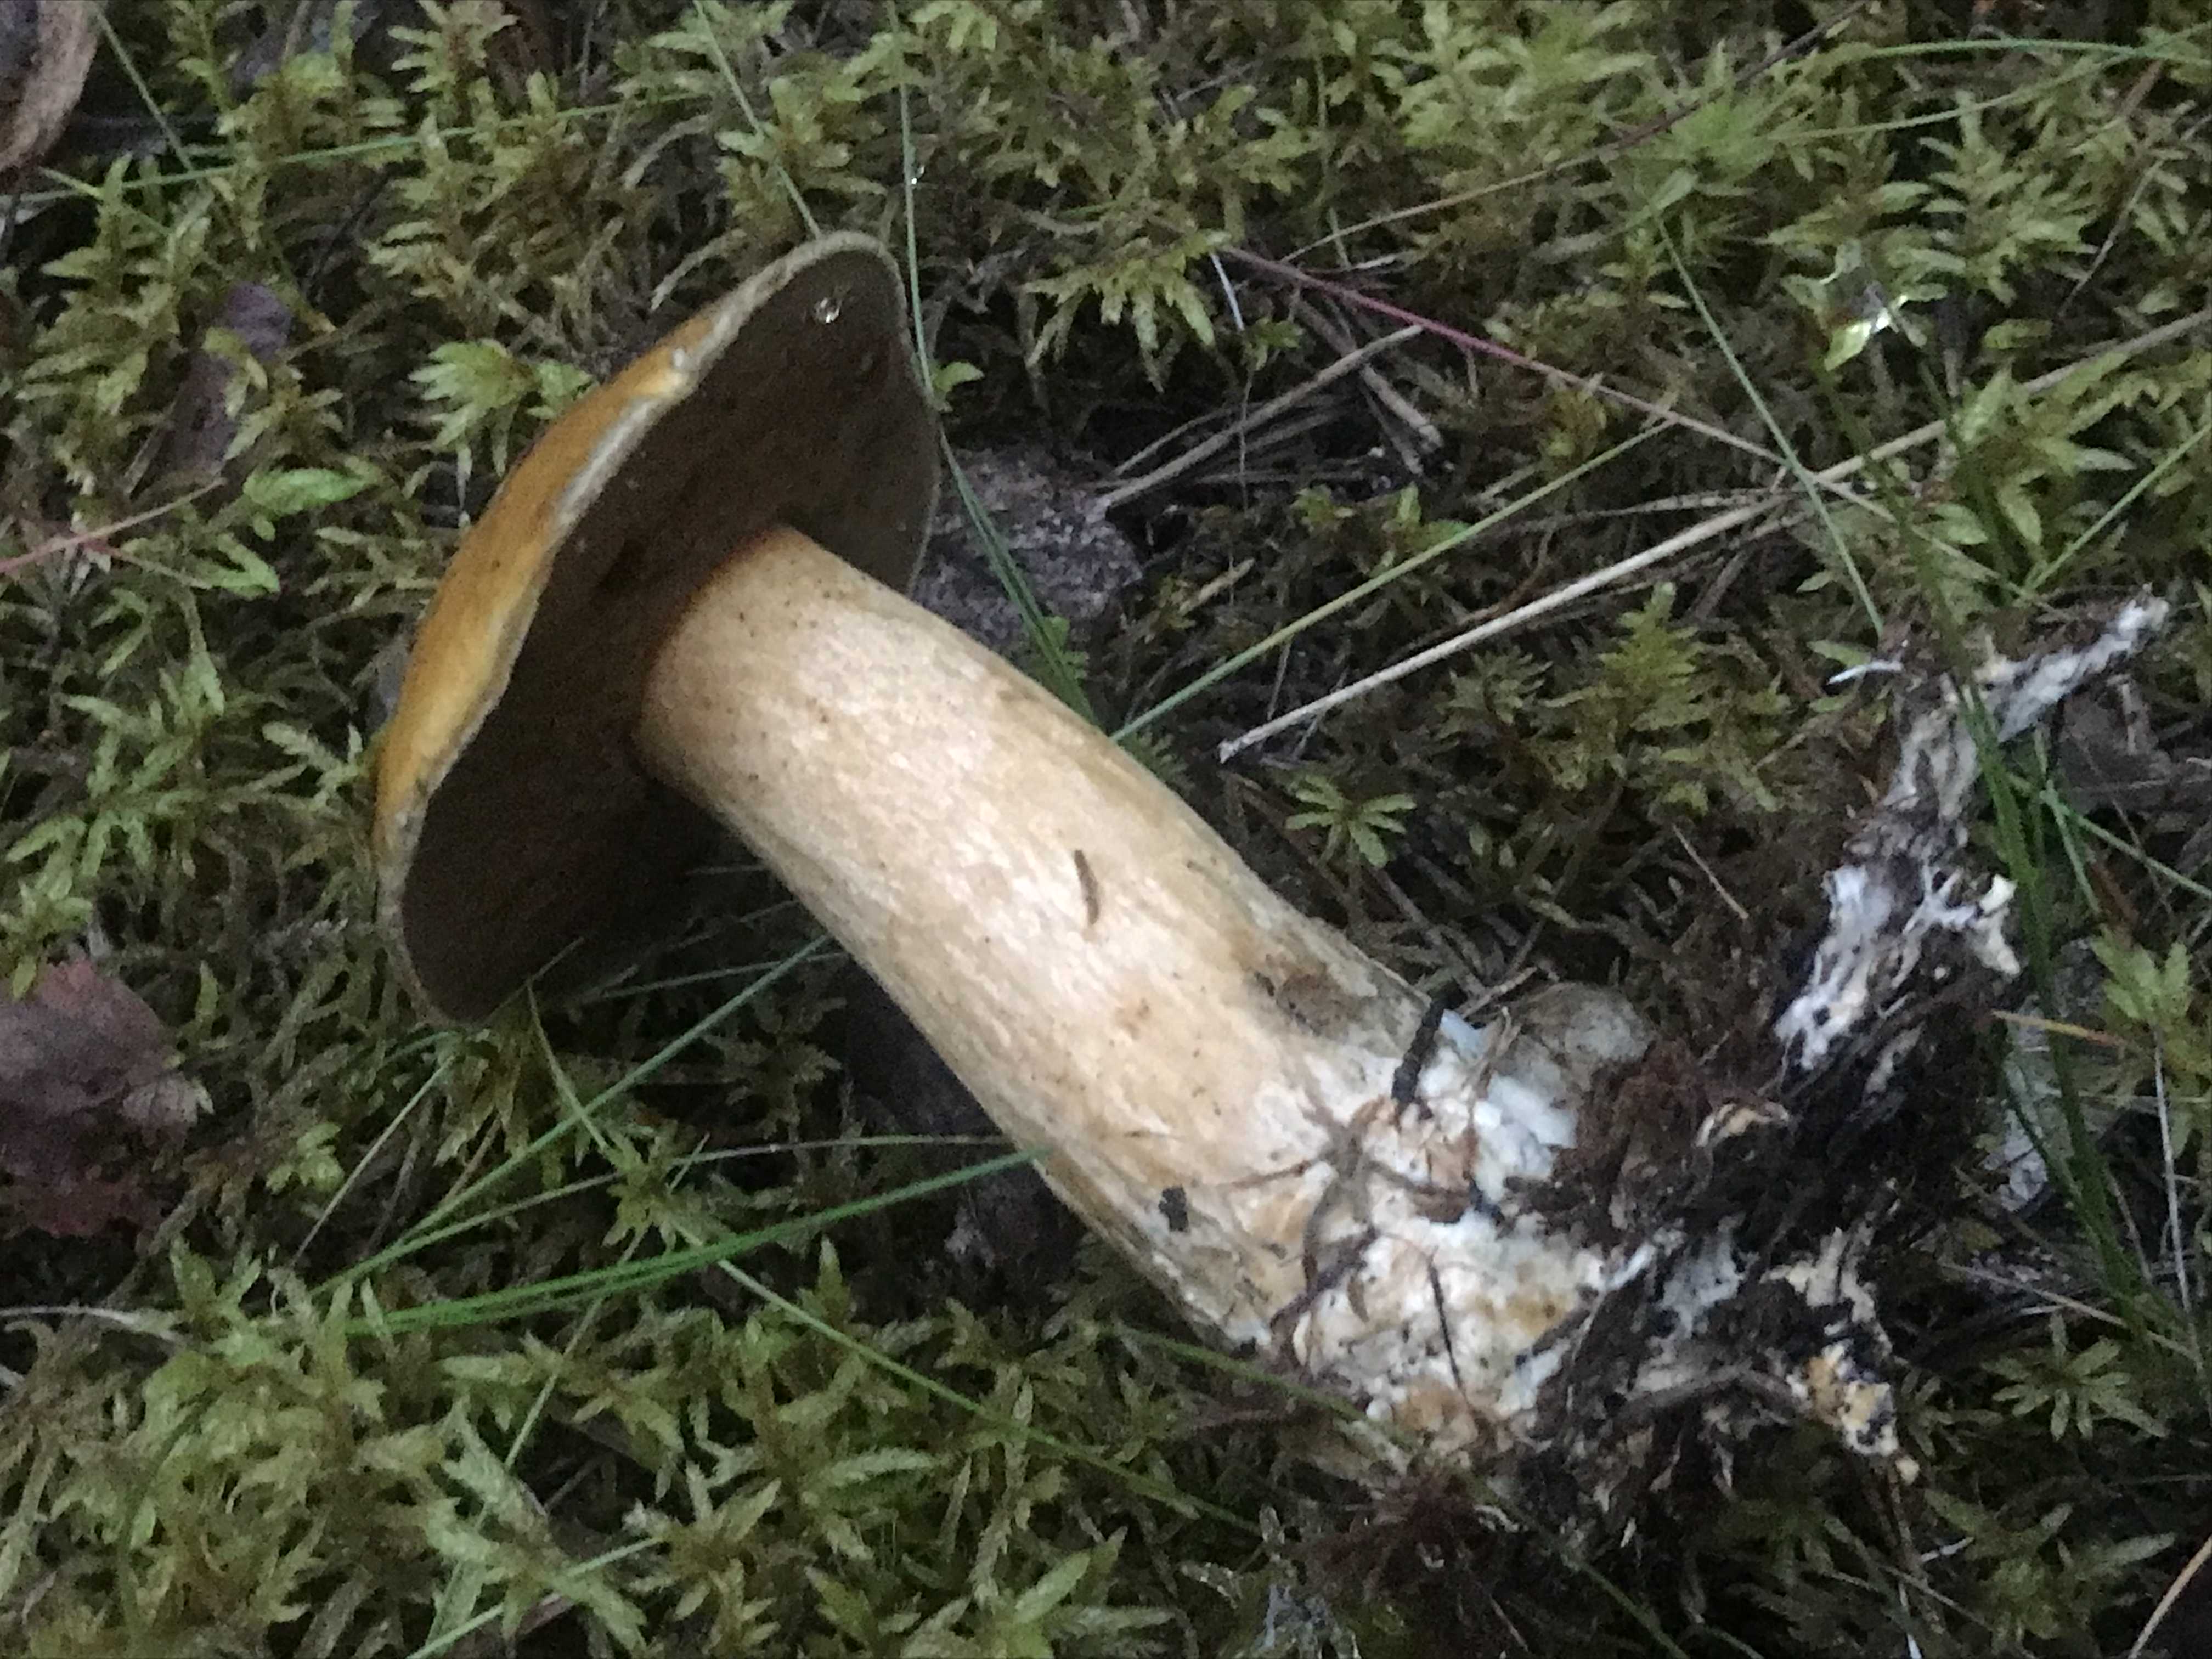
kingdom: Fungi
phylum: Basidiomycota
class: Agaricomycetes
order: Boletales
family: Suillaceae
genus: Suillus
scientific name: Suillus variegatus
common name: broget slimrørhat
